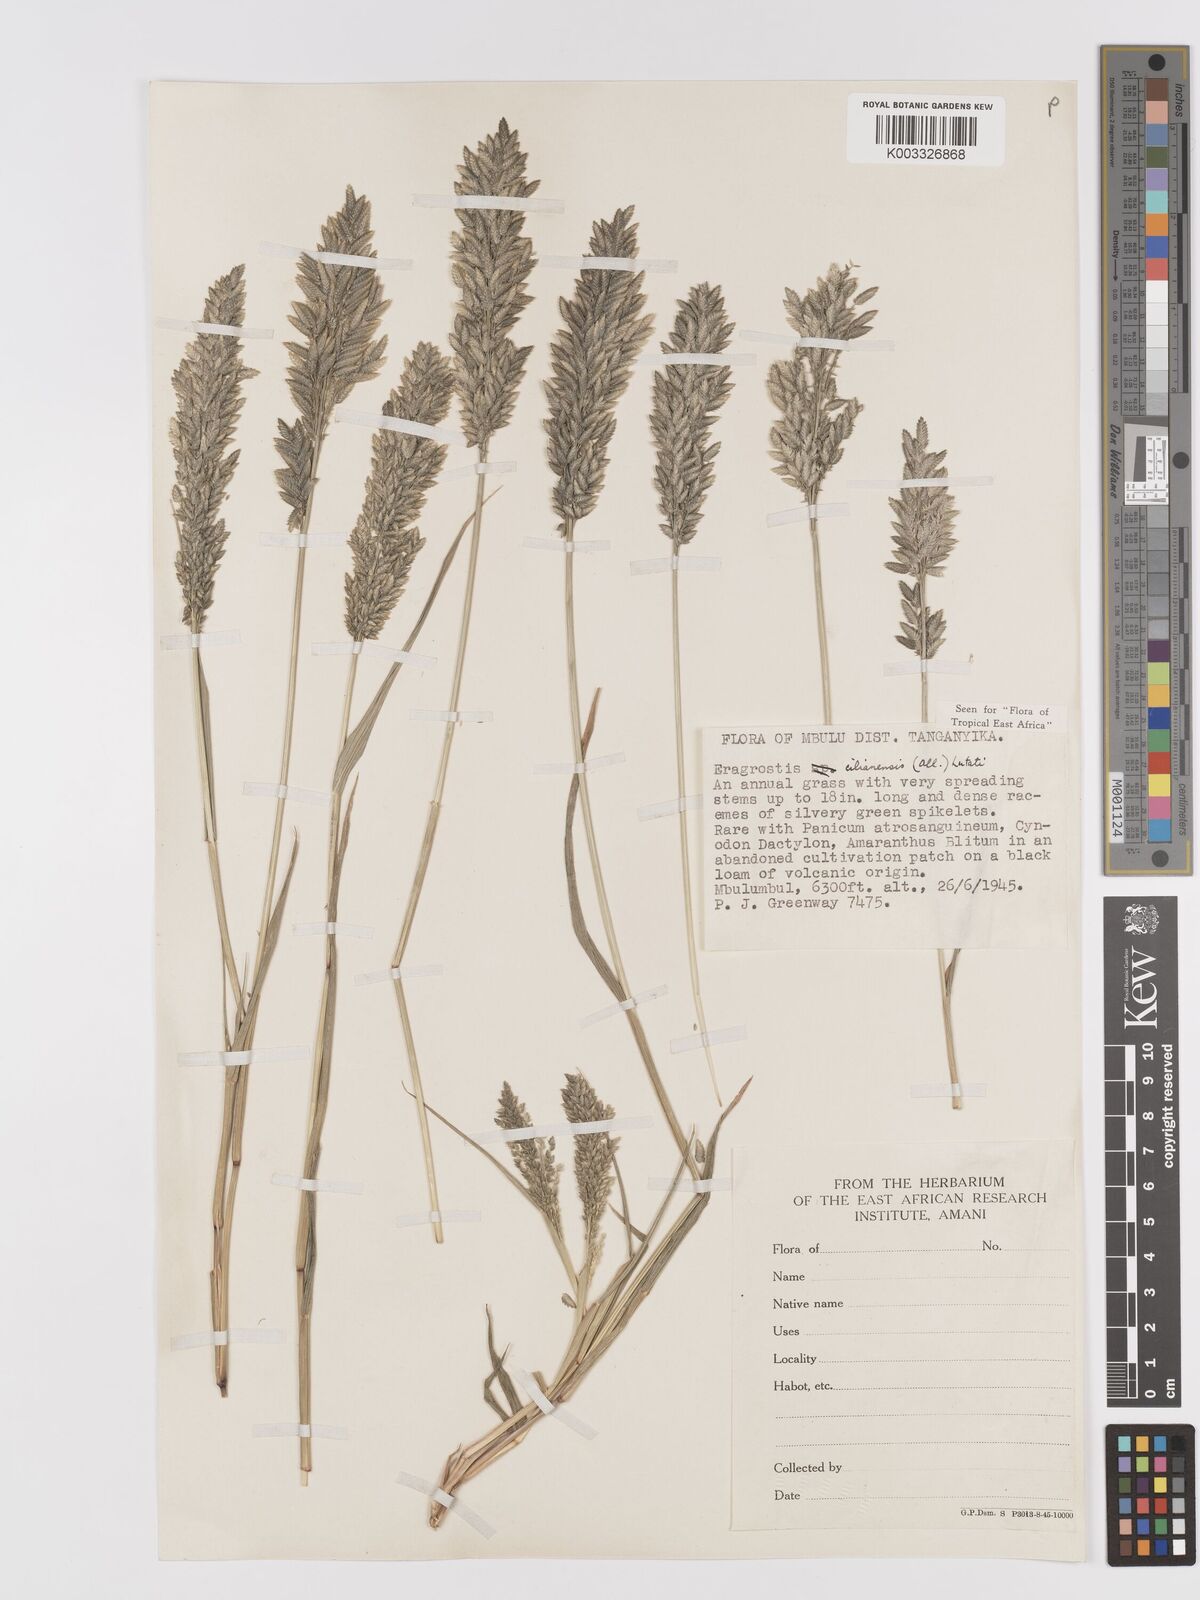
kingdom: Plantae
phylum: Tracheophyta
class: Liliopsida
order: Poales
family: Poaceae
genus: Eragrostis
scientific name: Eragrostis cilianensis
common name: Stinkgrass
